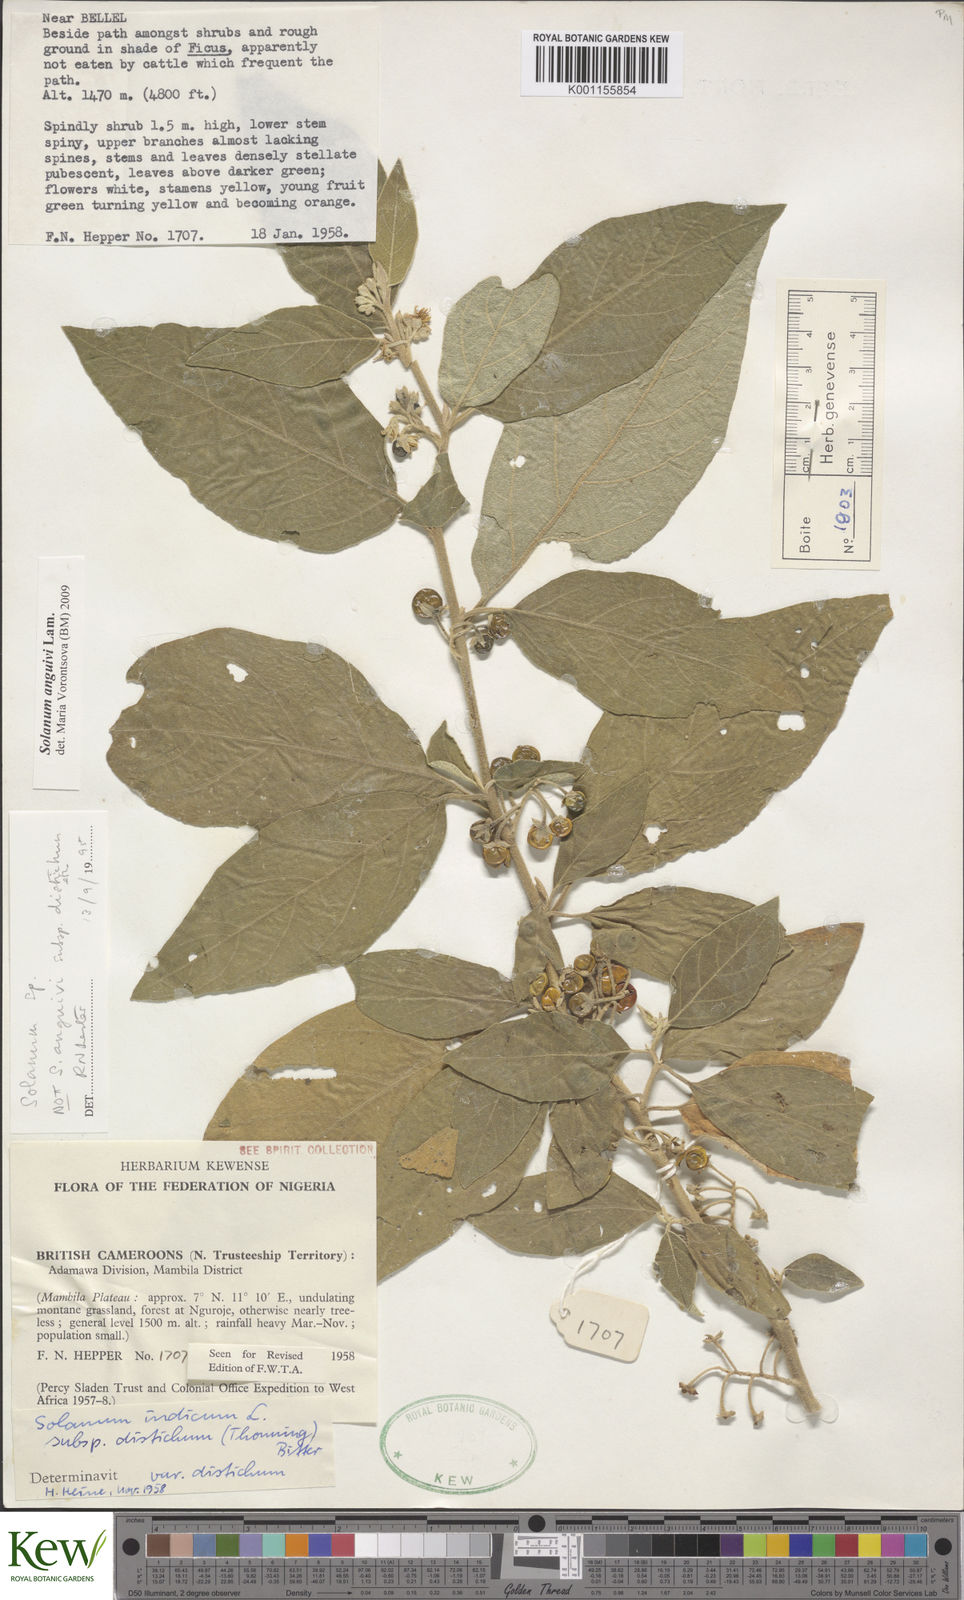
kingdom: Plantae
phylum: Tracheophyta
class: Magnoliopsida
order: Solanales
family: Solanaceae
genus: Solanum
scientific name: Solanum anguivi
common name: Forest bitterberry
